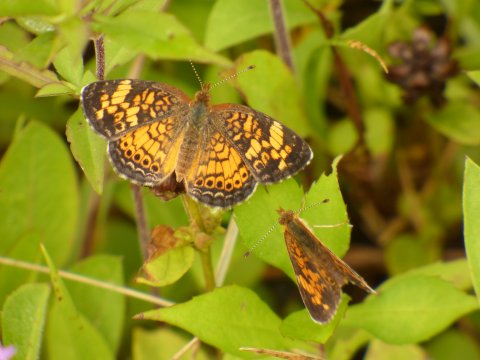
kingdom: Animalia
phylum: Arthropoda
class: Insecta
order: Lepidoptera
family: Nymphalidae
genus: Phyciodes
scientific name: Phyciodes tharos
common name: Pearl Crescent
